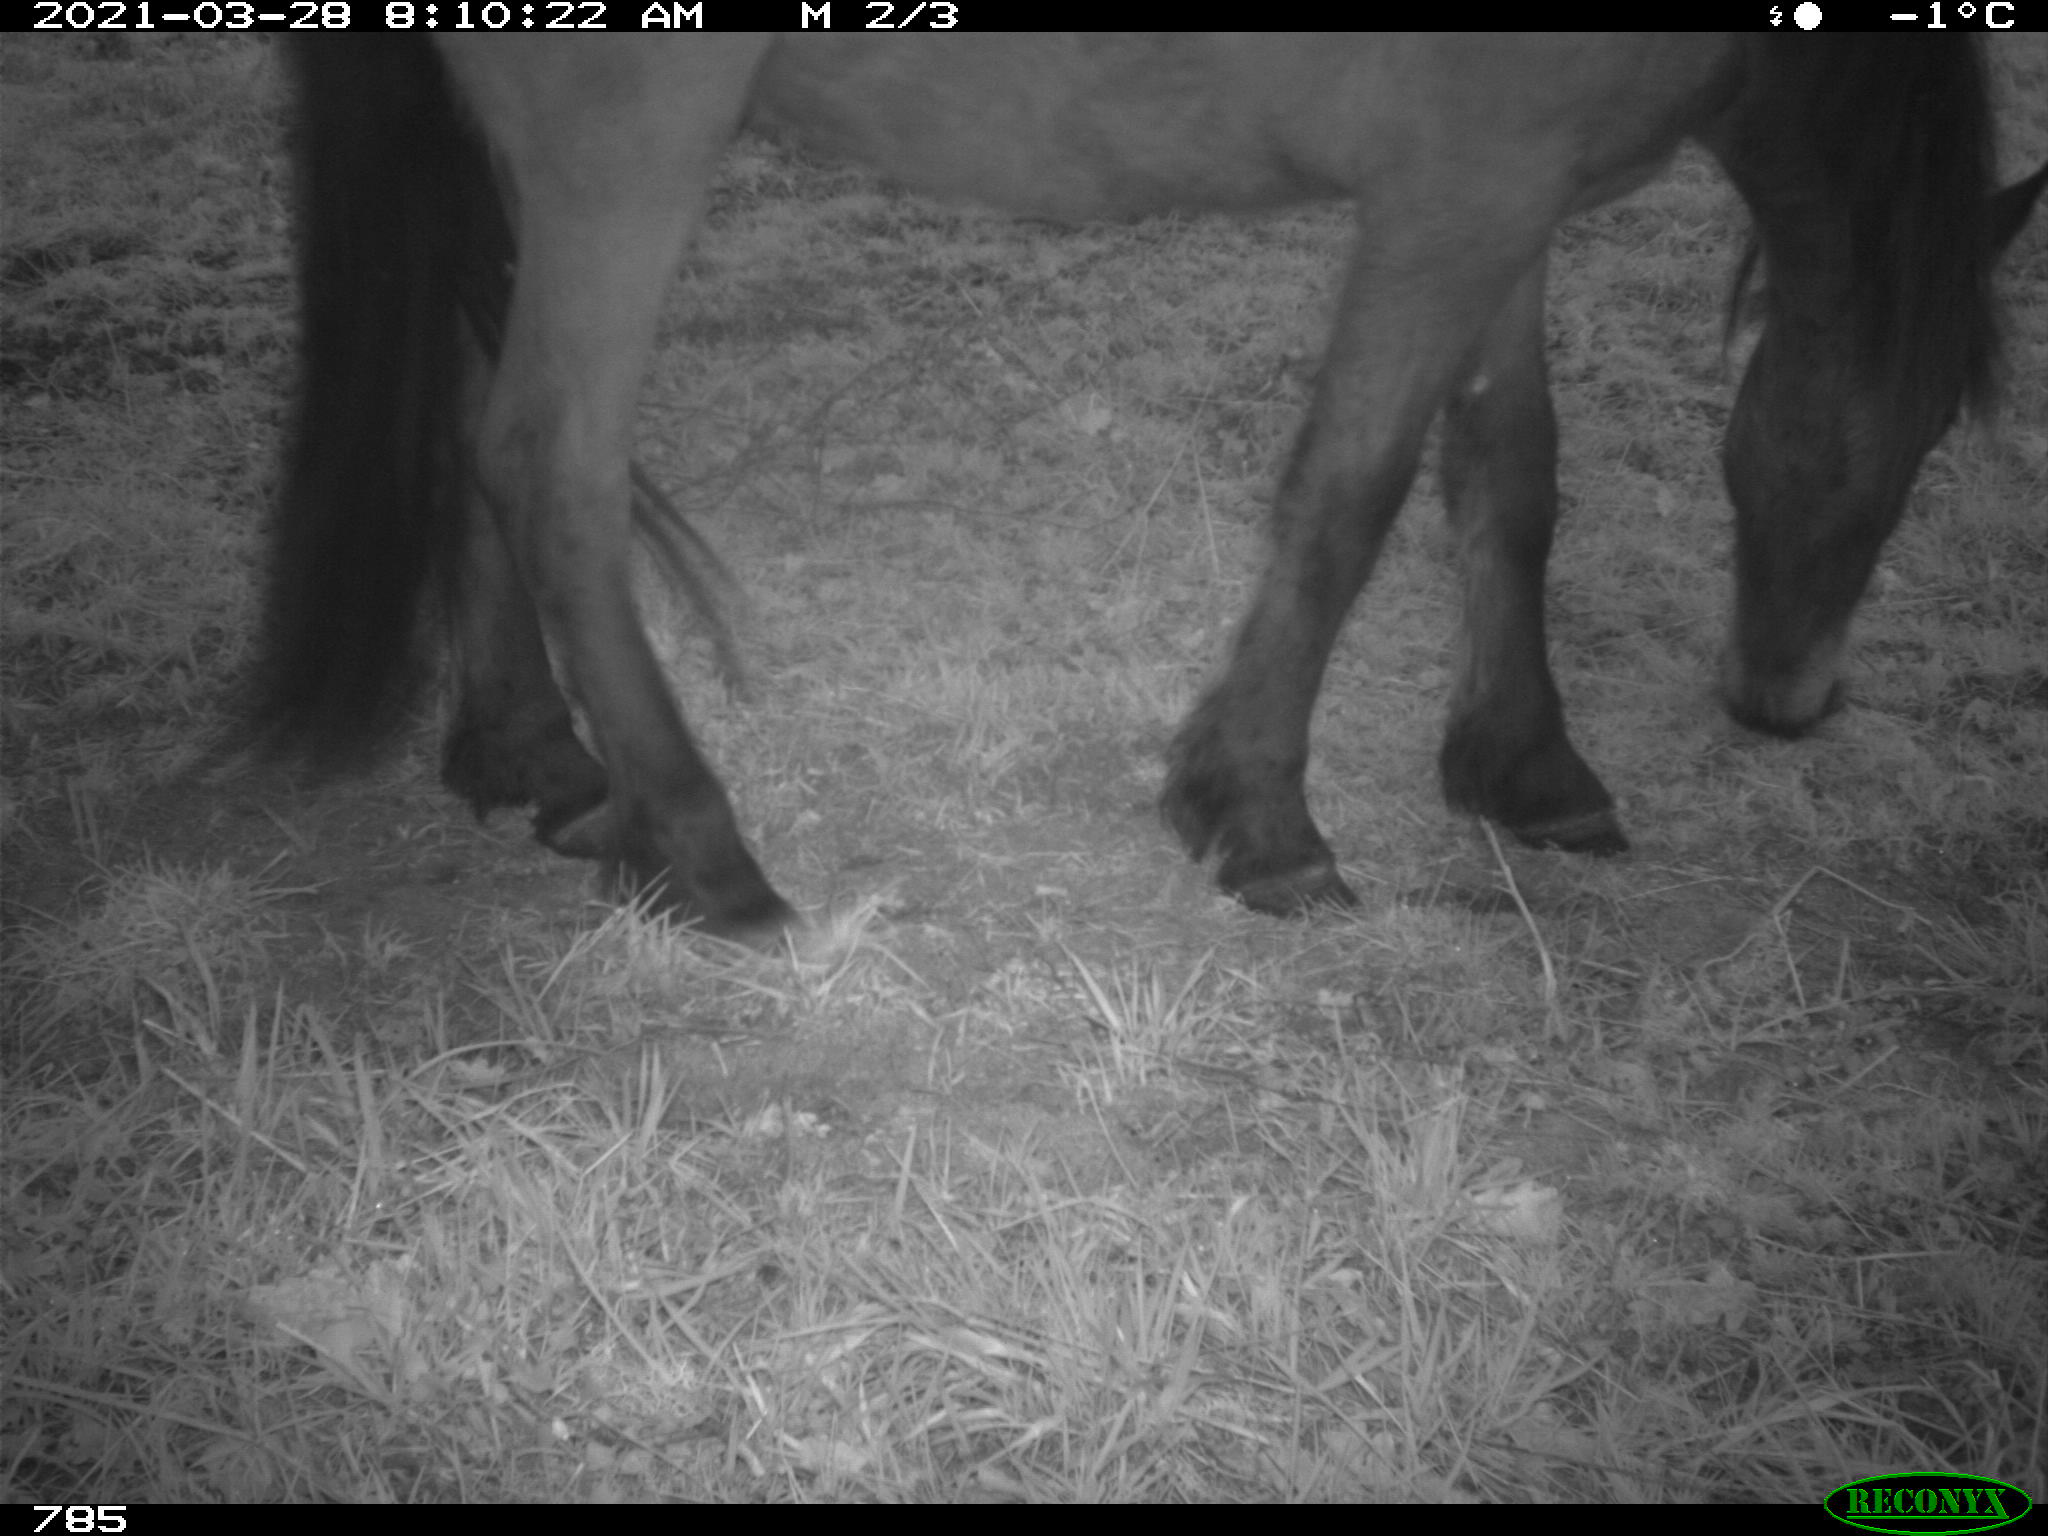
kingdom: Animalia
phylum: Chordata
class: Mammalia
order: Perissodactyla
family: Equidae
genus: Equus
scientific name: Equus caballus
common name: Horse
